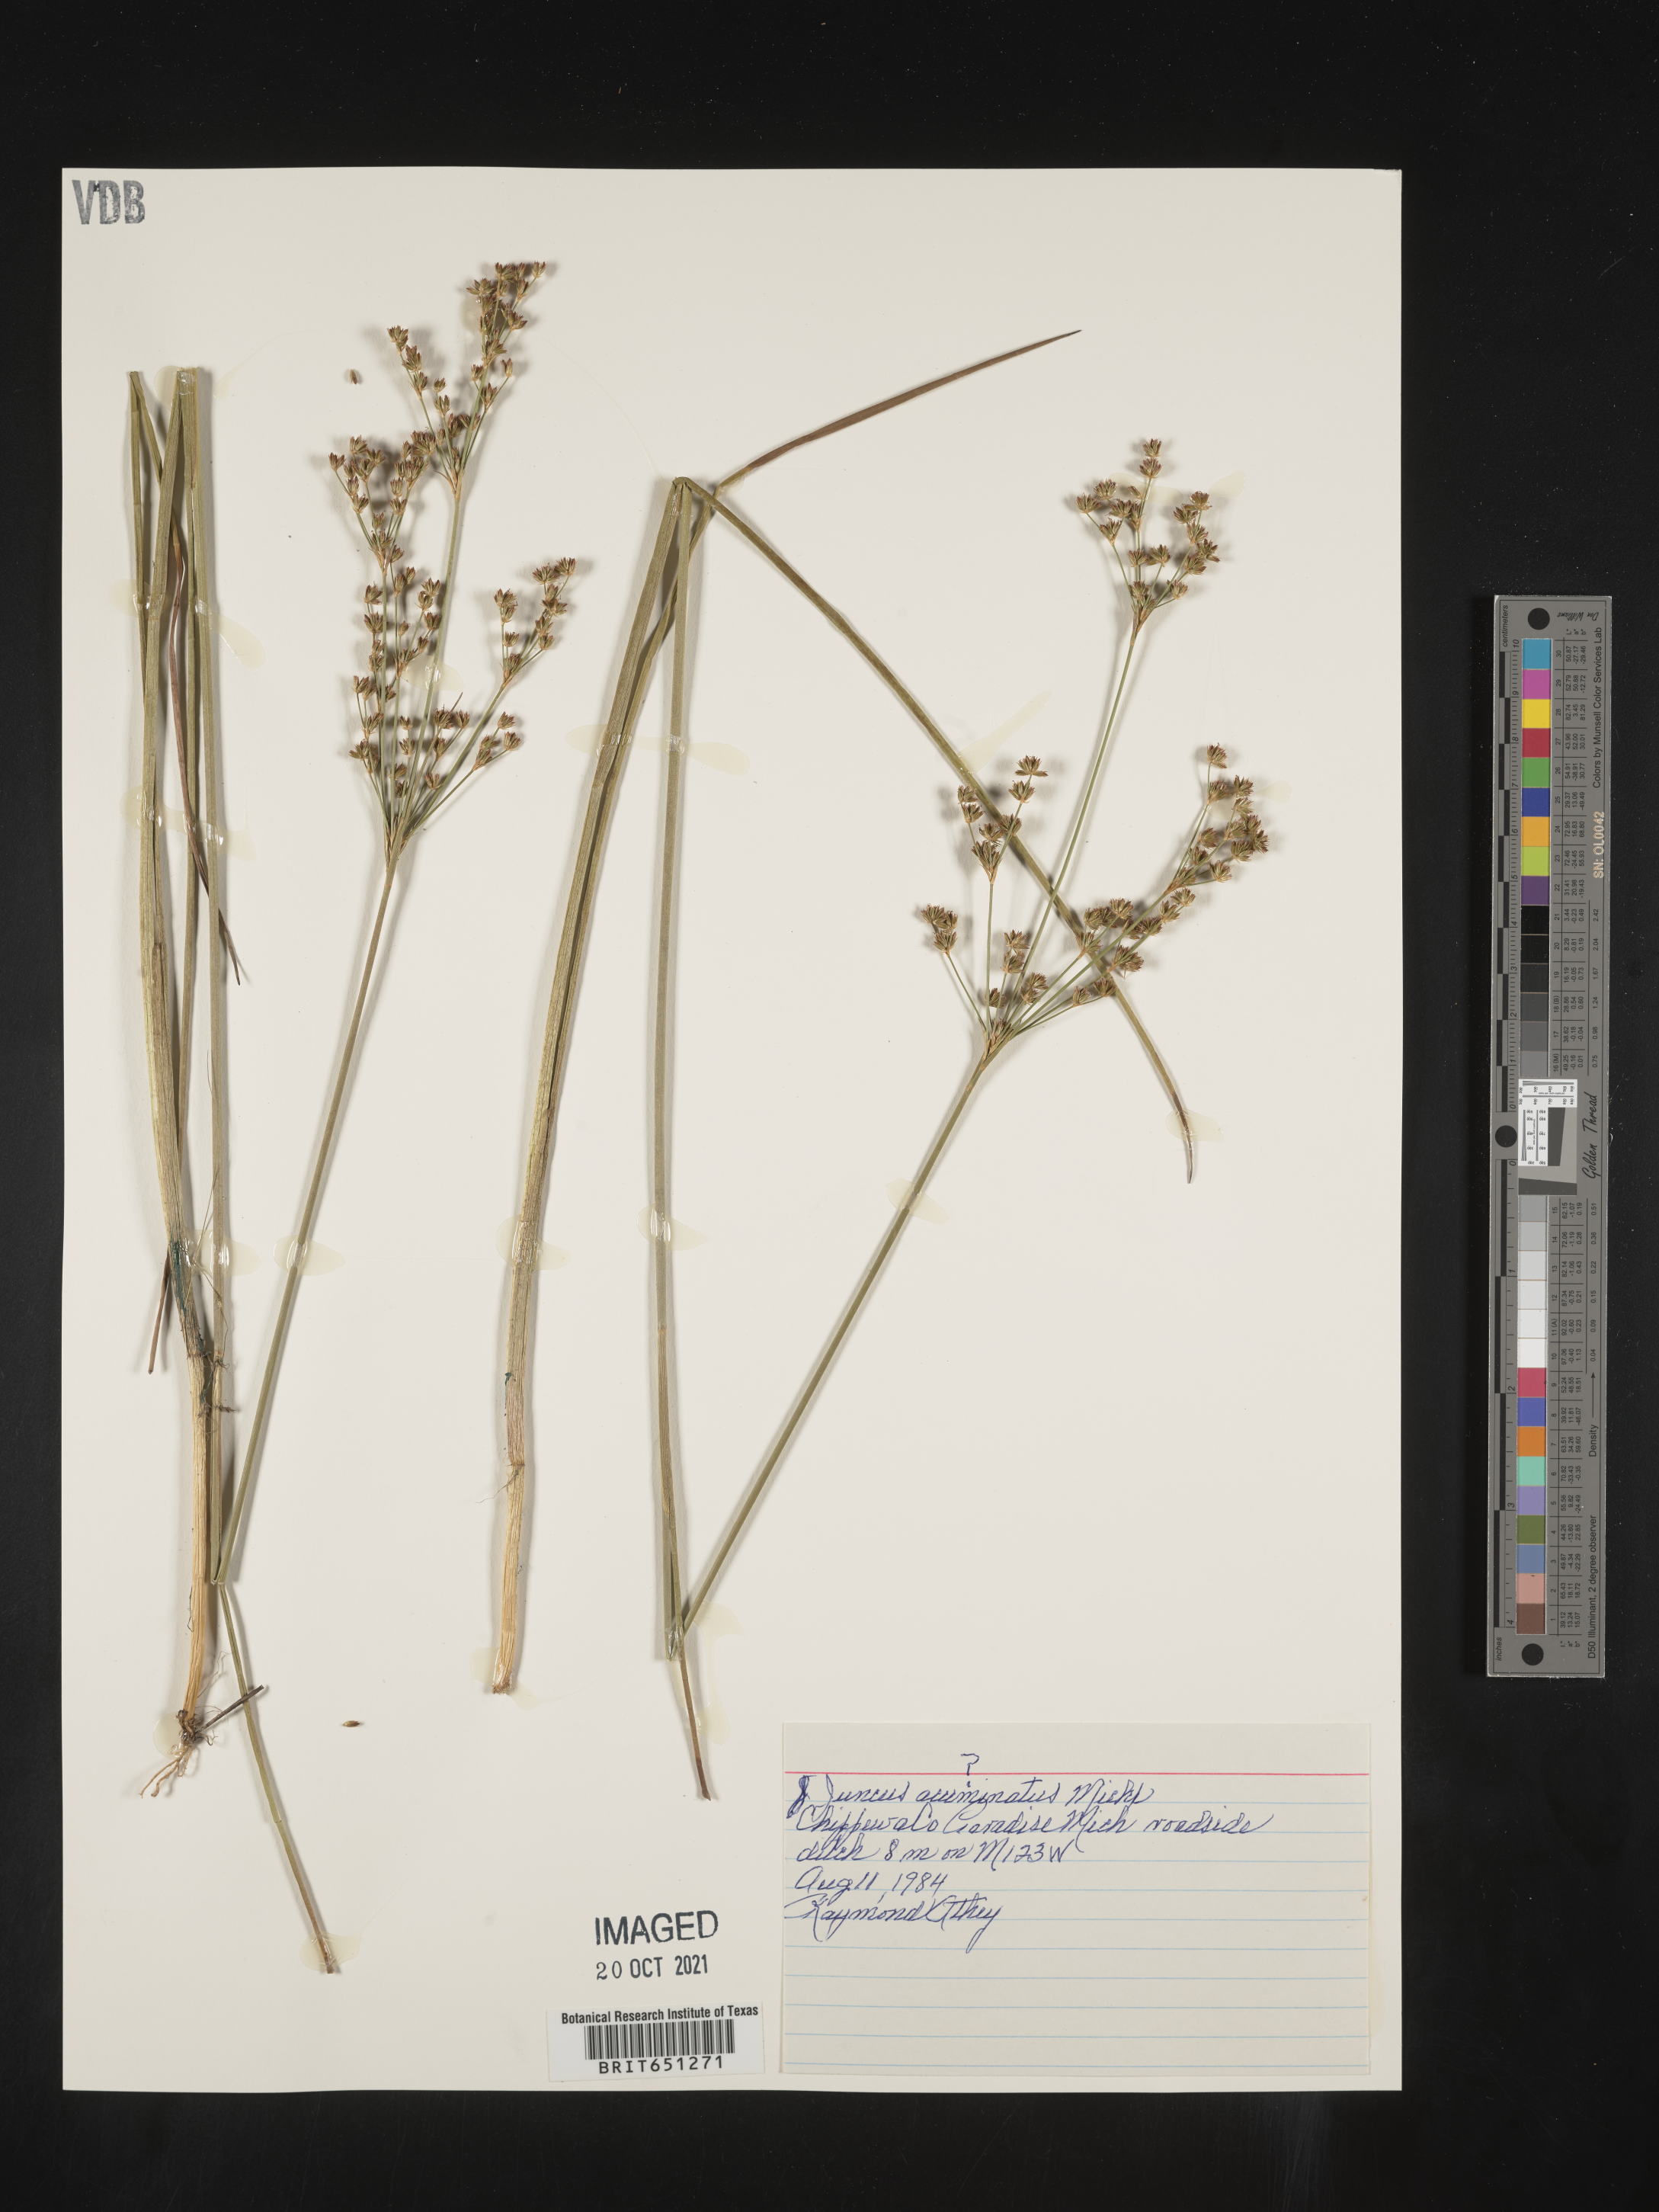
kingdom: Plantae
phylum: Tracheophyta
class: Liliopsida
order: Poales
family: Juncaceae
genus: Juncus
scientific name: Juncus acuminatus
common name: Knotty-leaved rush
